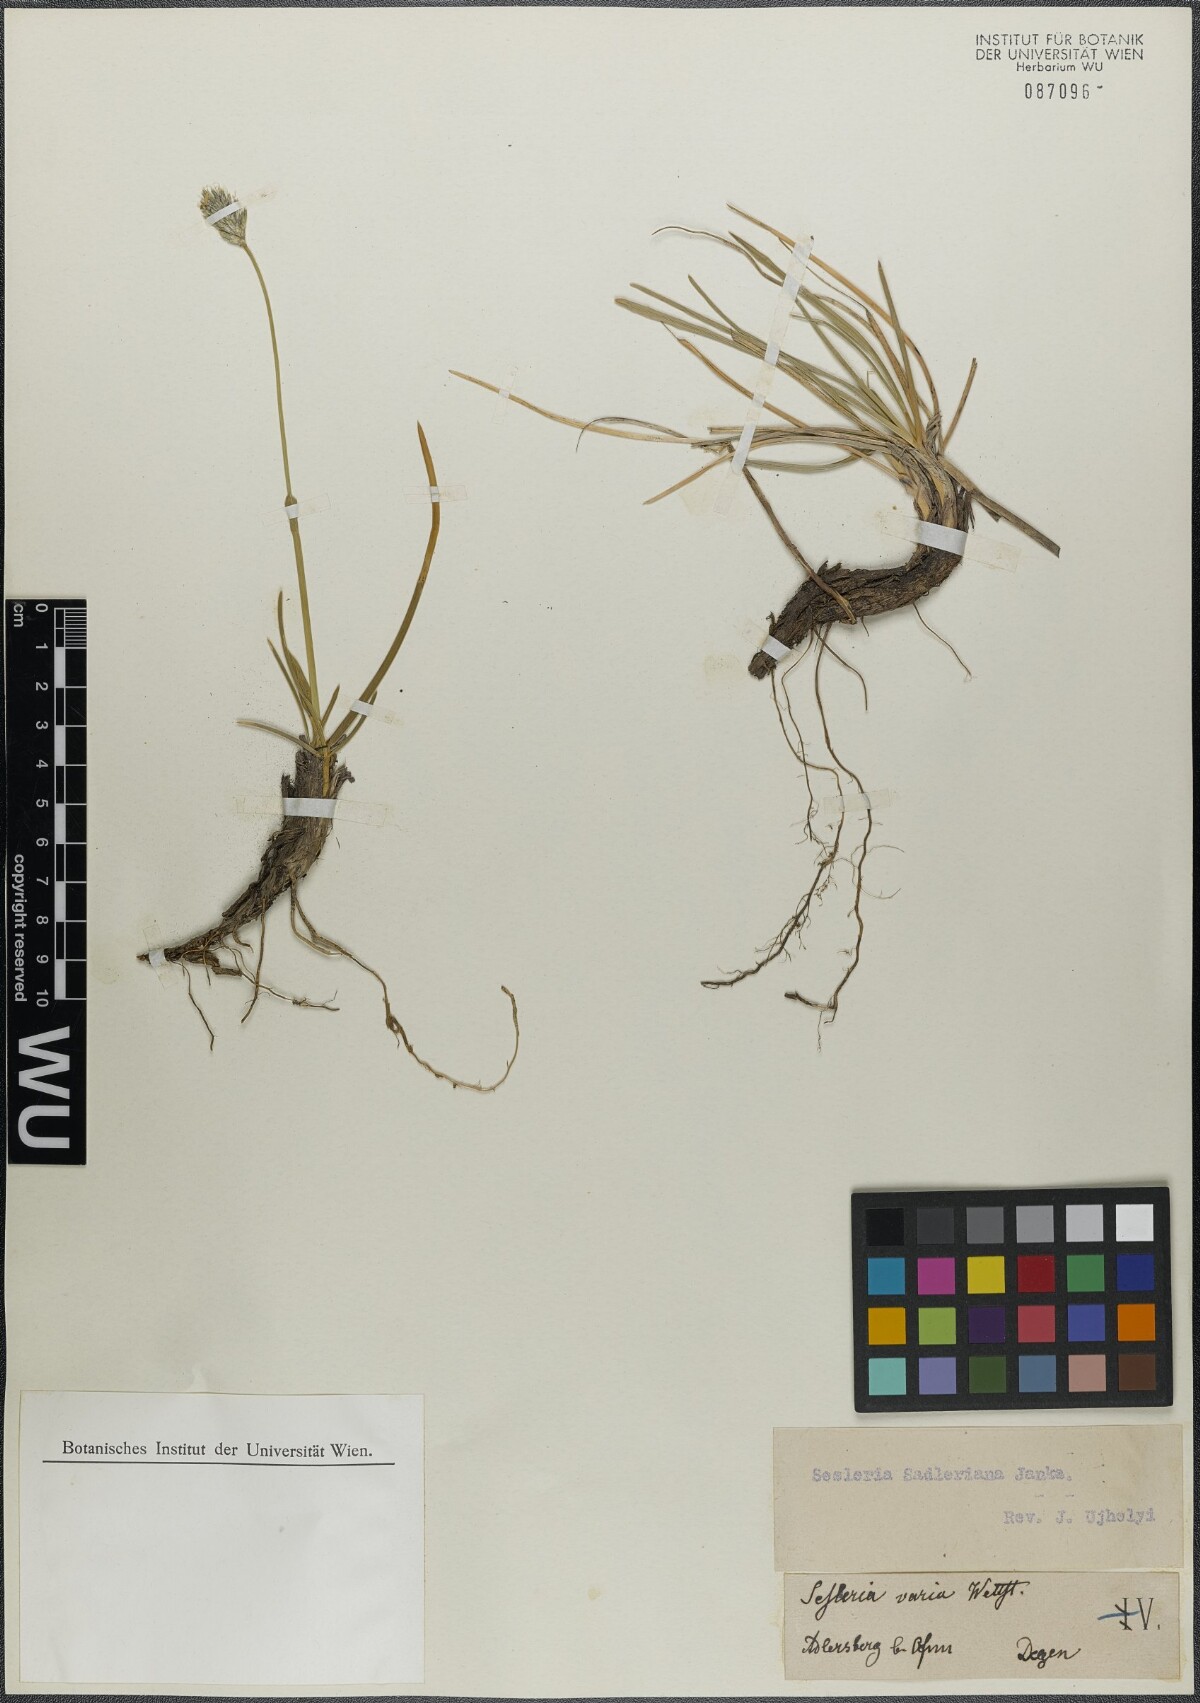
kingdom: Plantae
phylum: Tracheophyta
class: Liliopsida
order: Poales
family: Poaceae
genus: Sesleria
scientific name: Sesleria sadleriana
